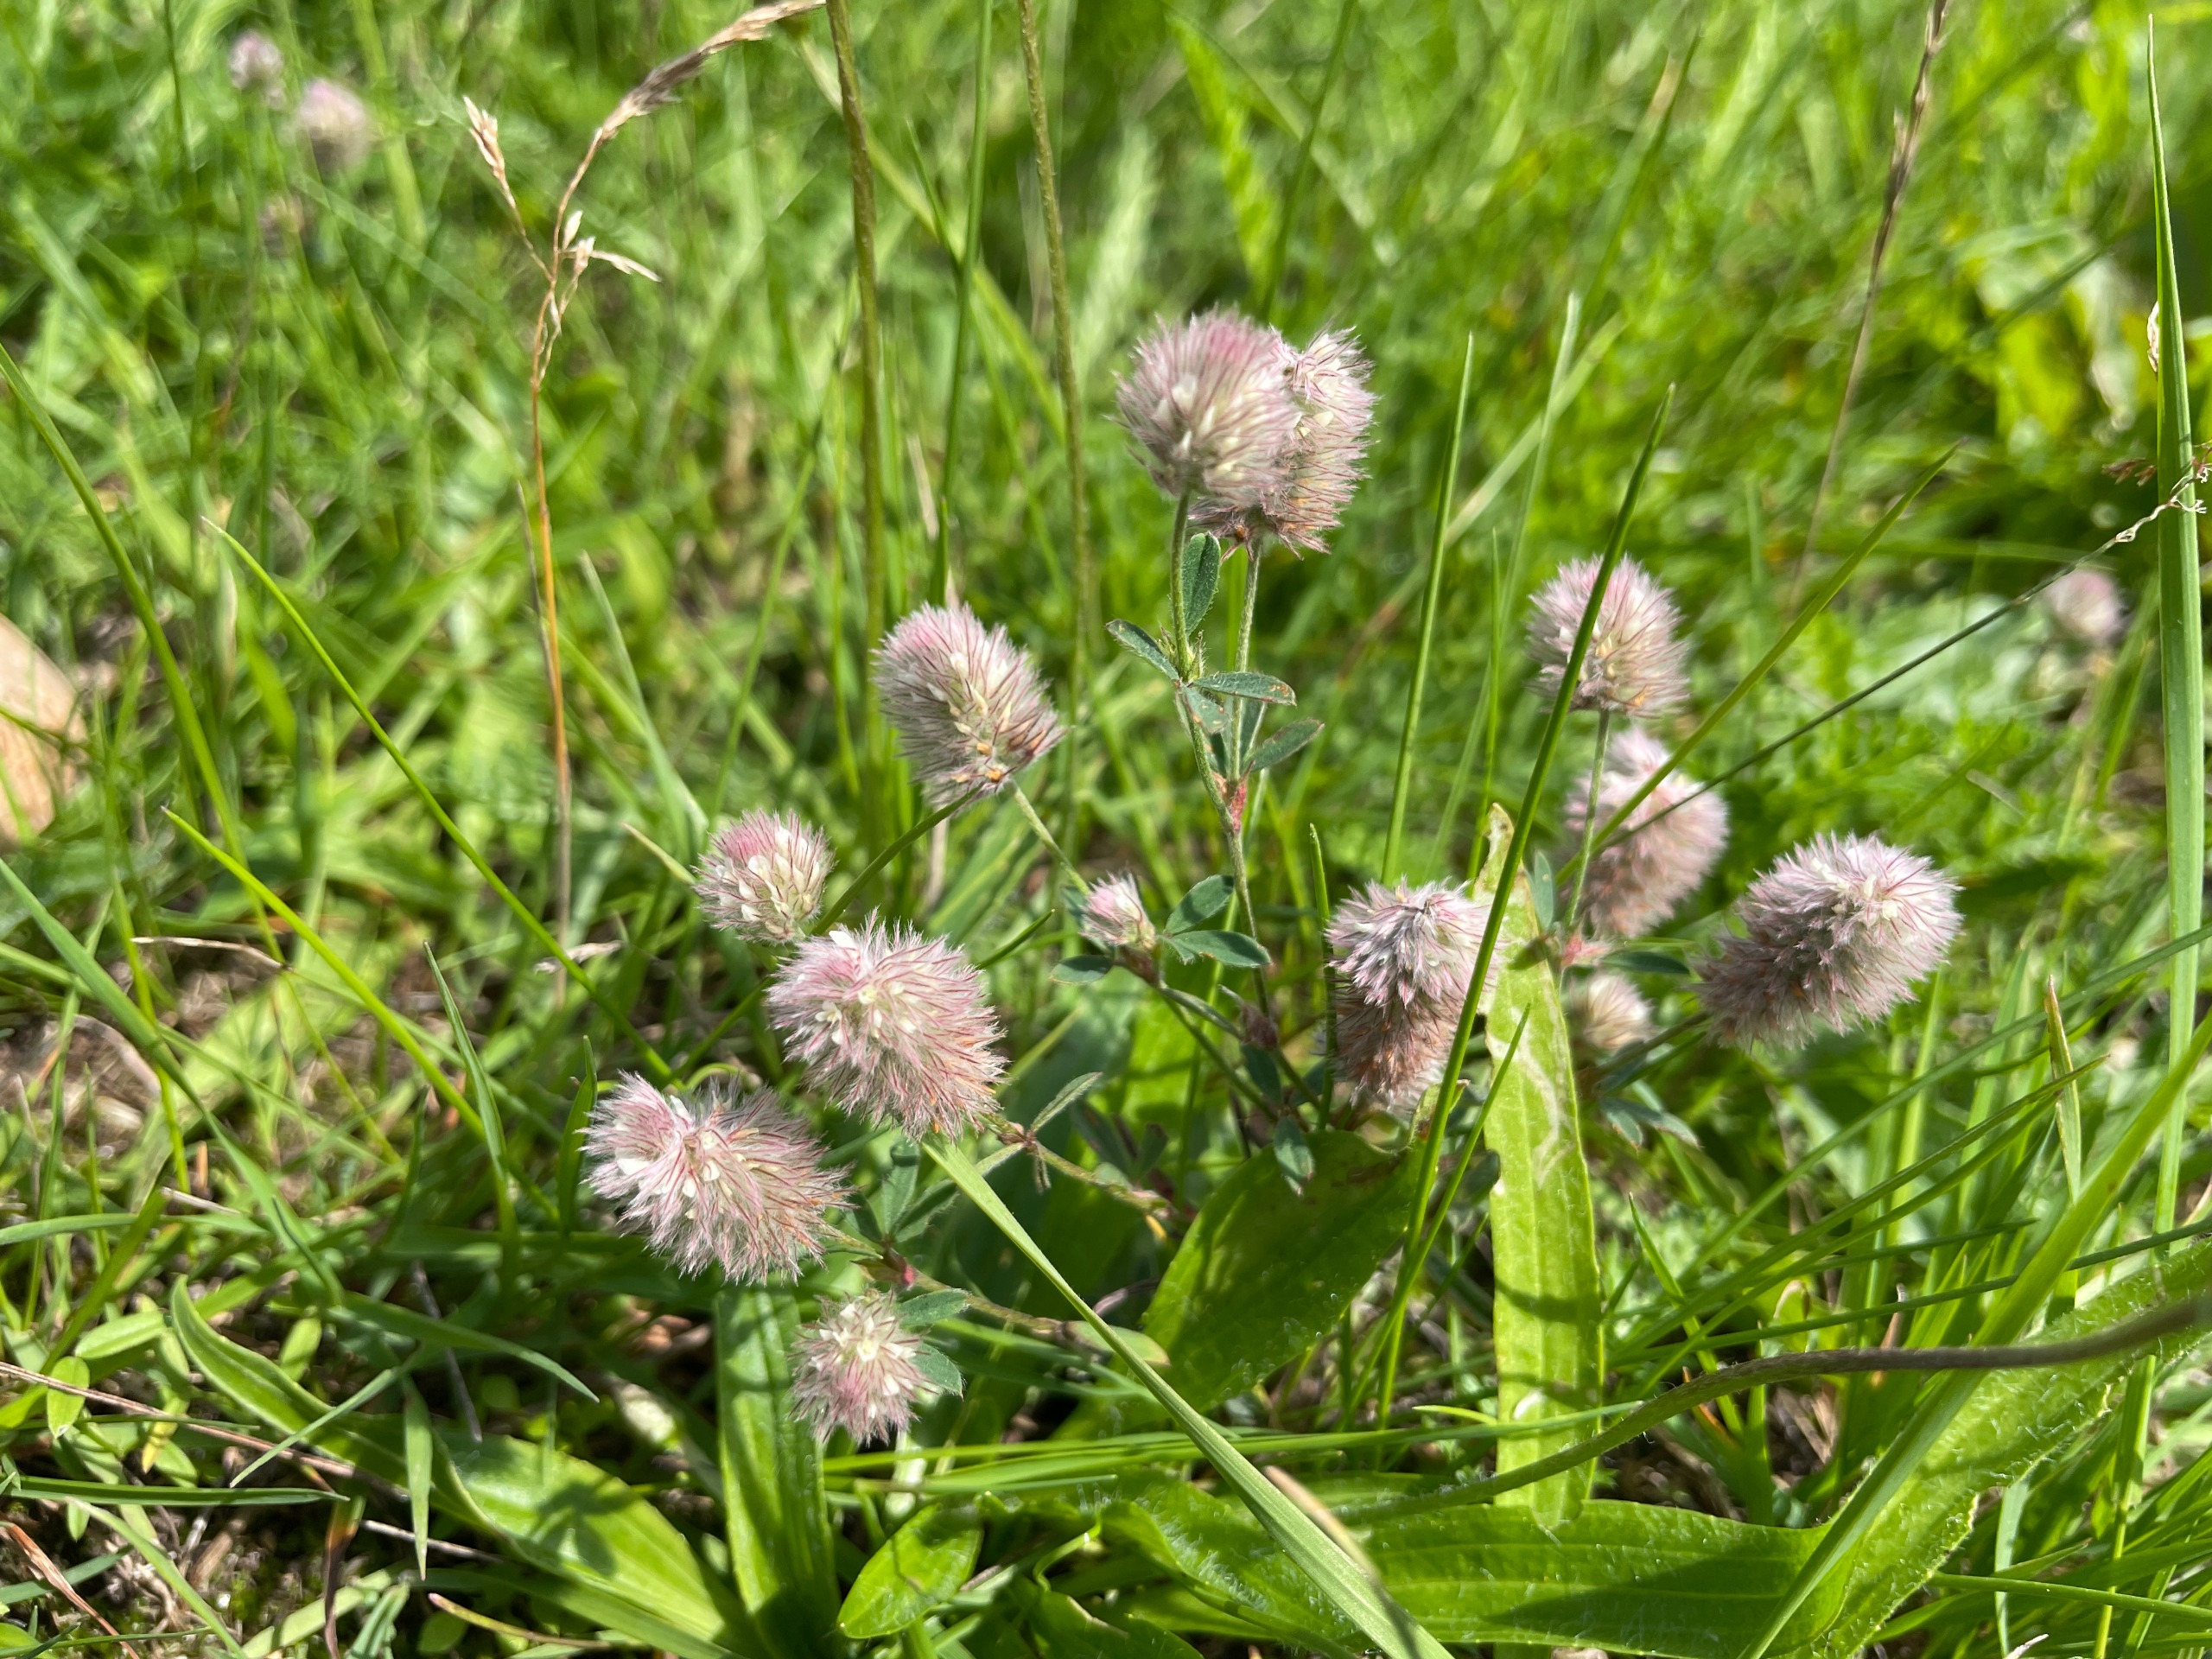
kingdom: Plantae
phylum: Tracheophyta
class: Magnoliopsida
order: Fabales
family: Fabaceae
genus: Trifolium
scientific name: Trifolium arvense
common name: Hare-kløver
